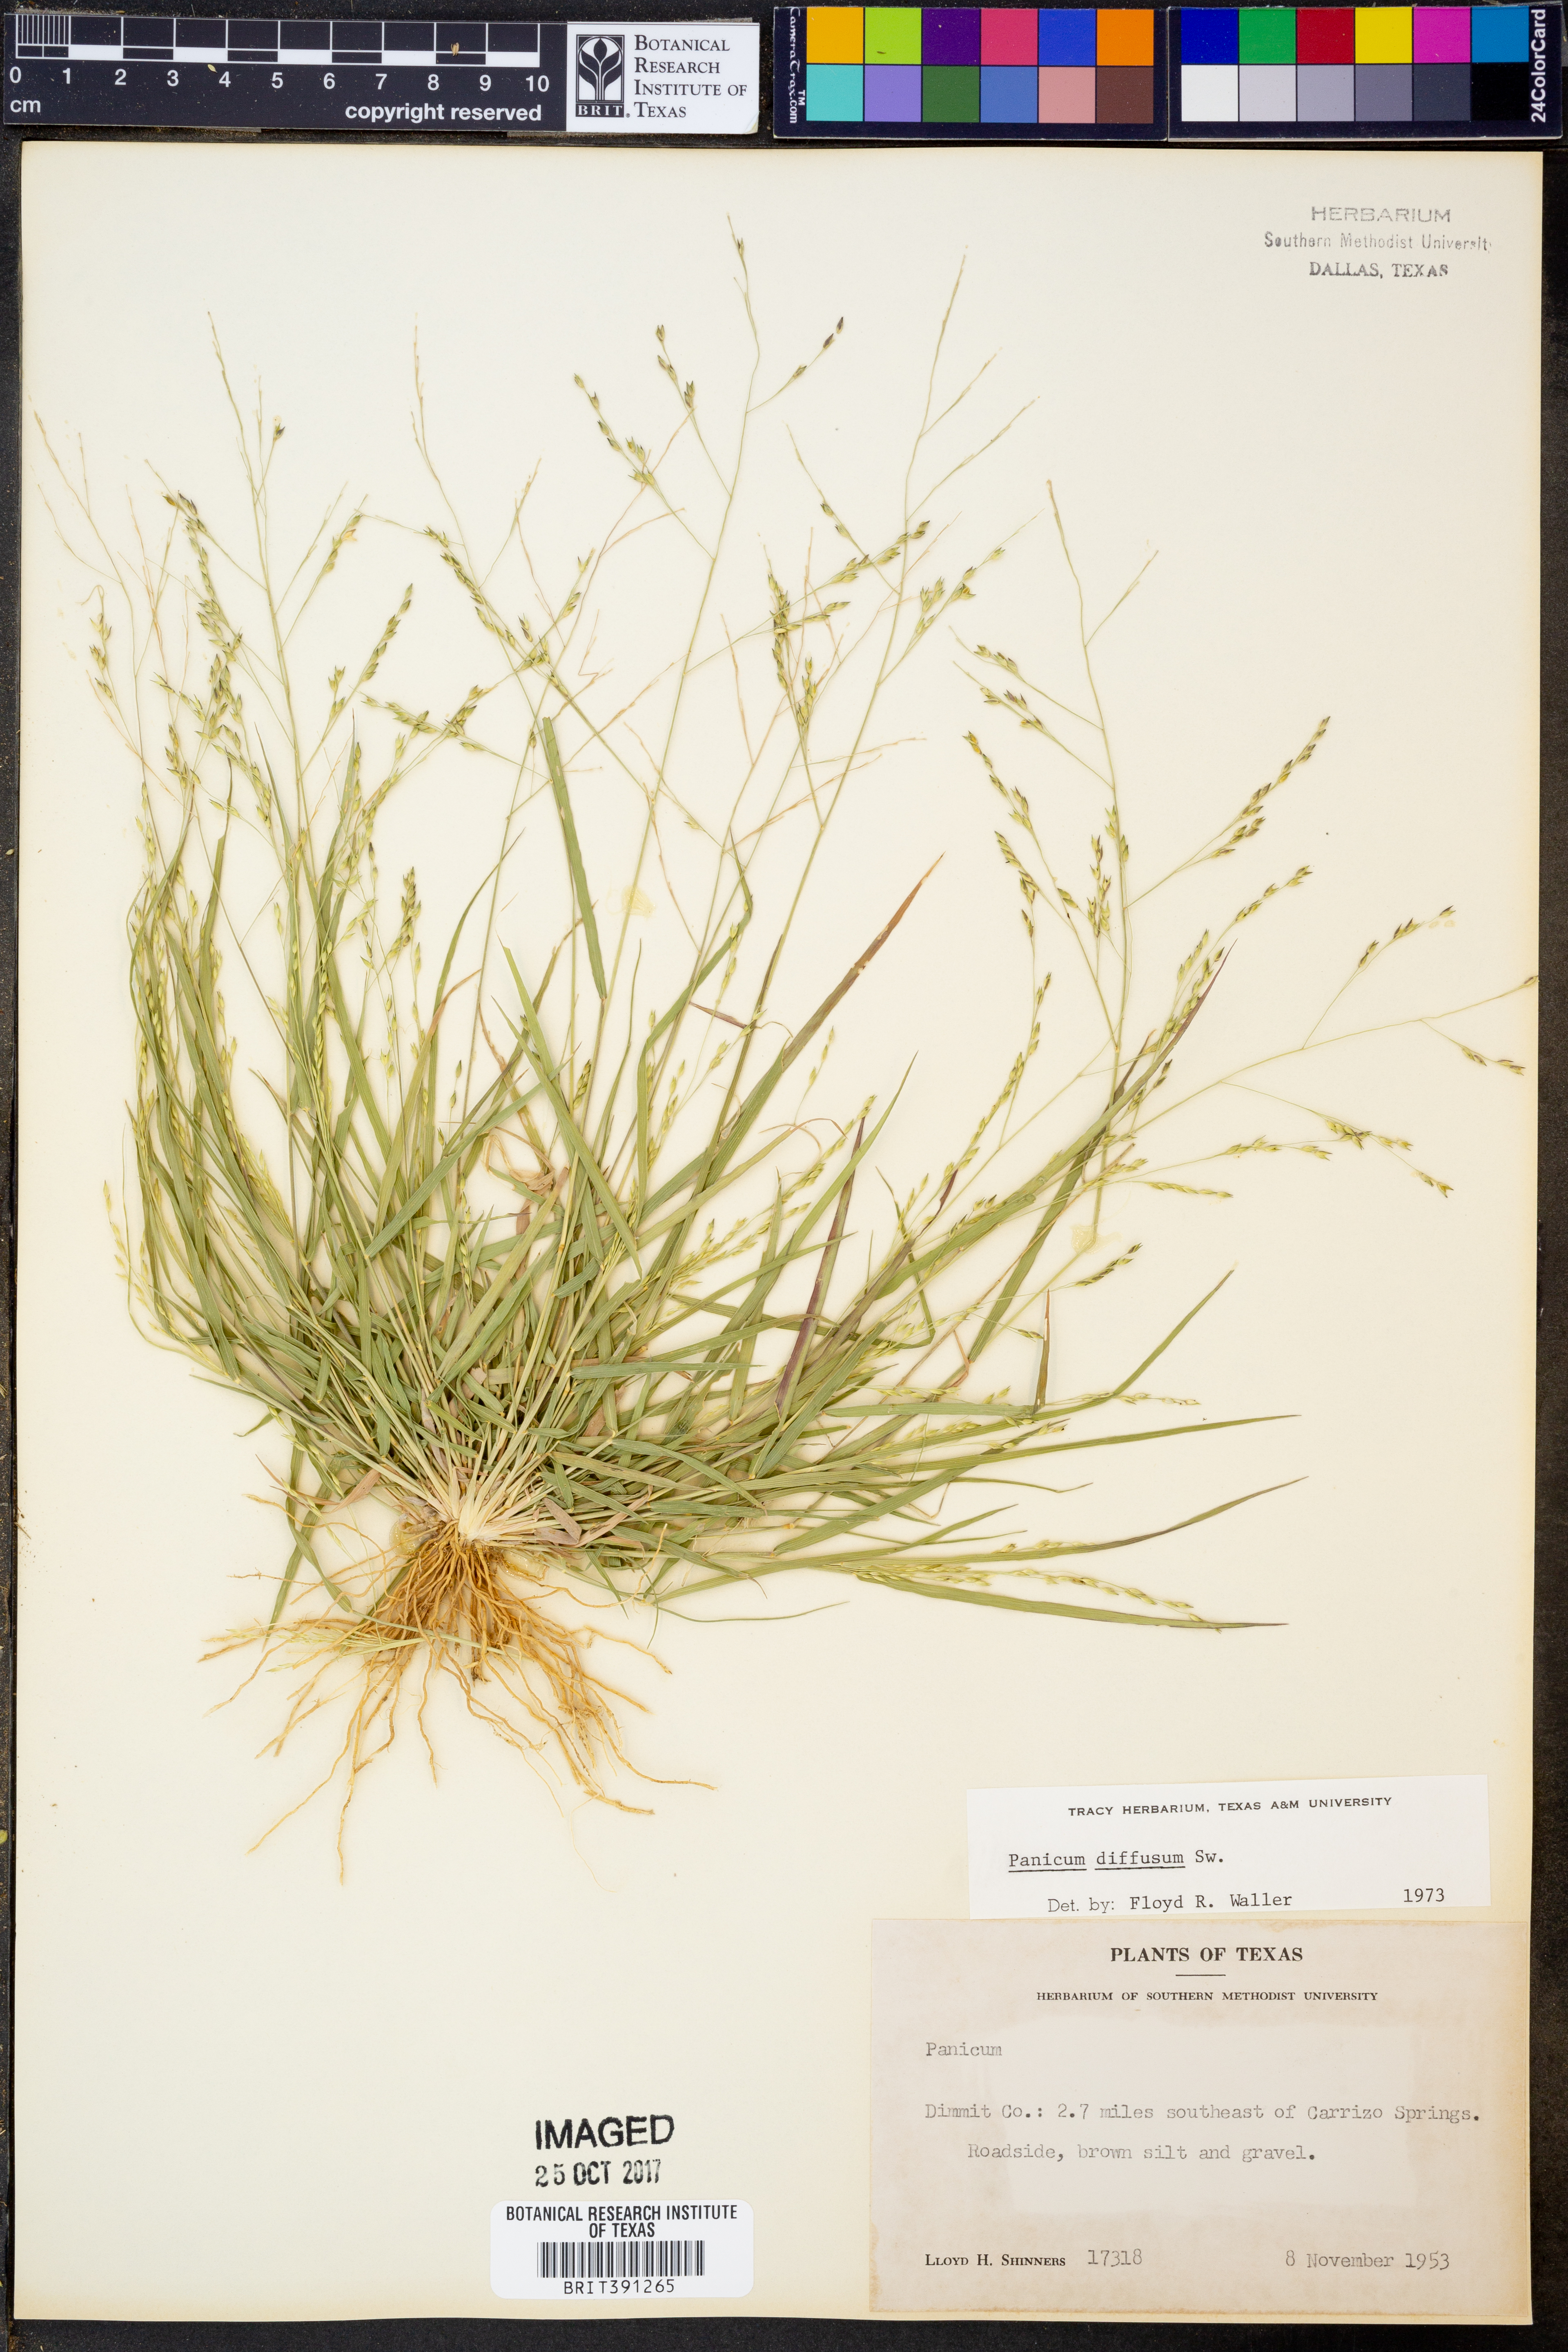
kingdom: Plantae
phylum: Tracheophyta
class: Liliopsida
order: Poales
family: Poaceae
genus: Panicum
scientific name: Panicum diffusum
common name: Spreading panicgrass
